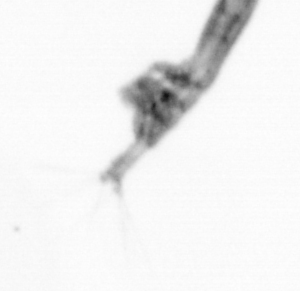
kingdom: Animalia
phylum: Arthropoda
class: Copepoda
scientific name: Copepoda
